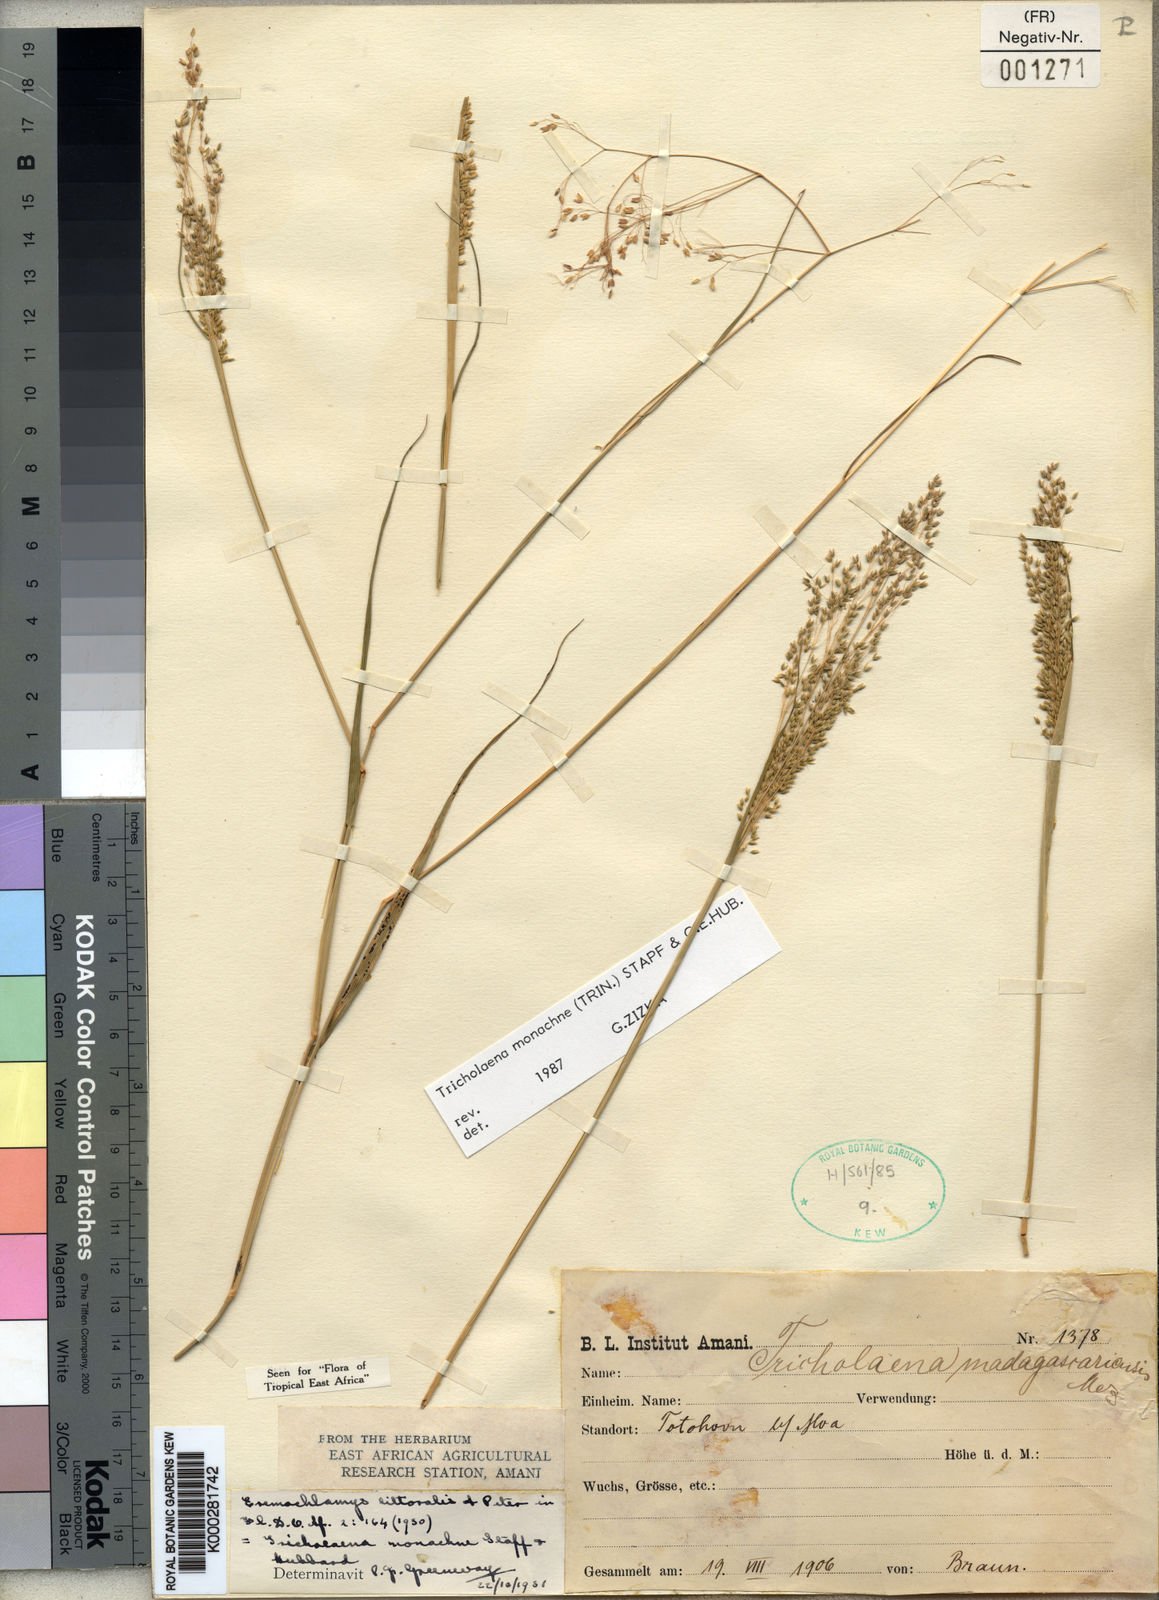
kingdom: Plantae
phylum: Tracheophyta
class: Liliopsida
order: Poales
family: Poaceae
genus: Tricholaena
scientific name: Tricholaena monachne
